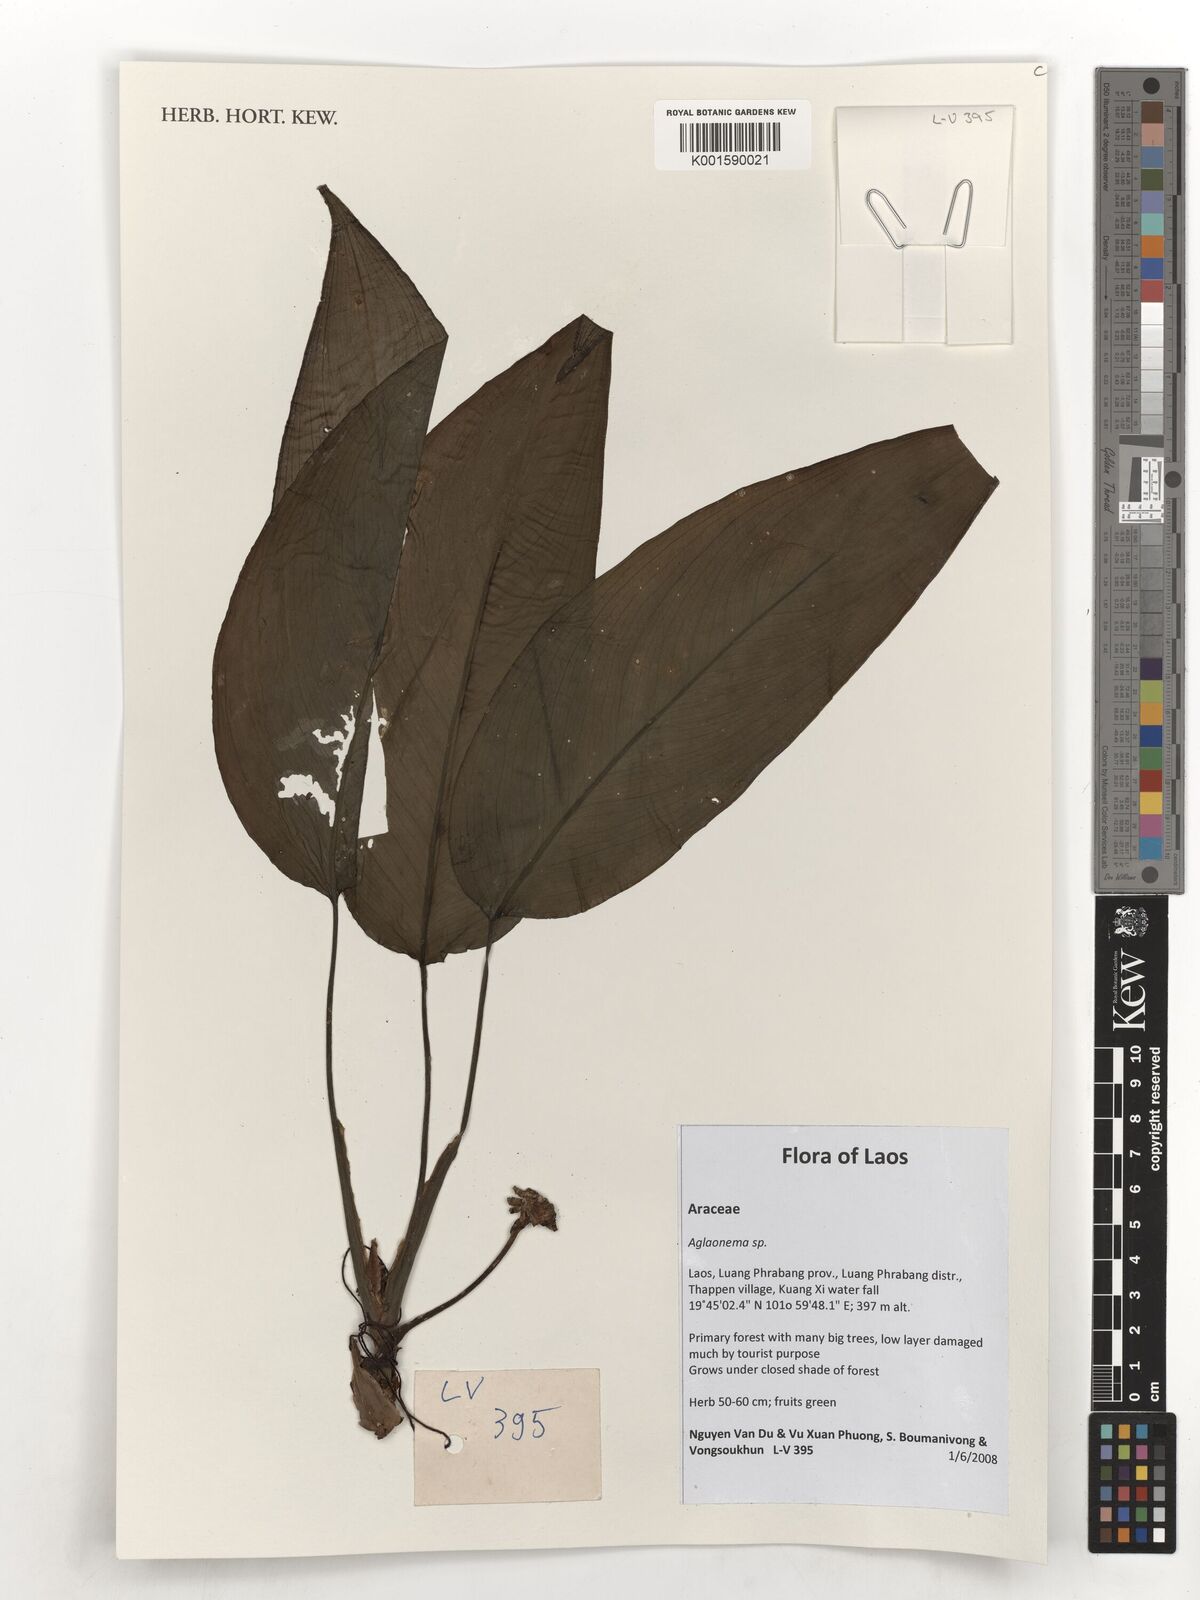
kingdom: Plantae
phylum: Tracheophyta
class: Liliopsida
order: Alismatales
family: Araceae
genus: Aglaonema
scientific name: Aglaonema
